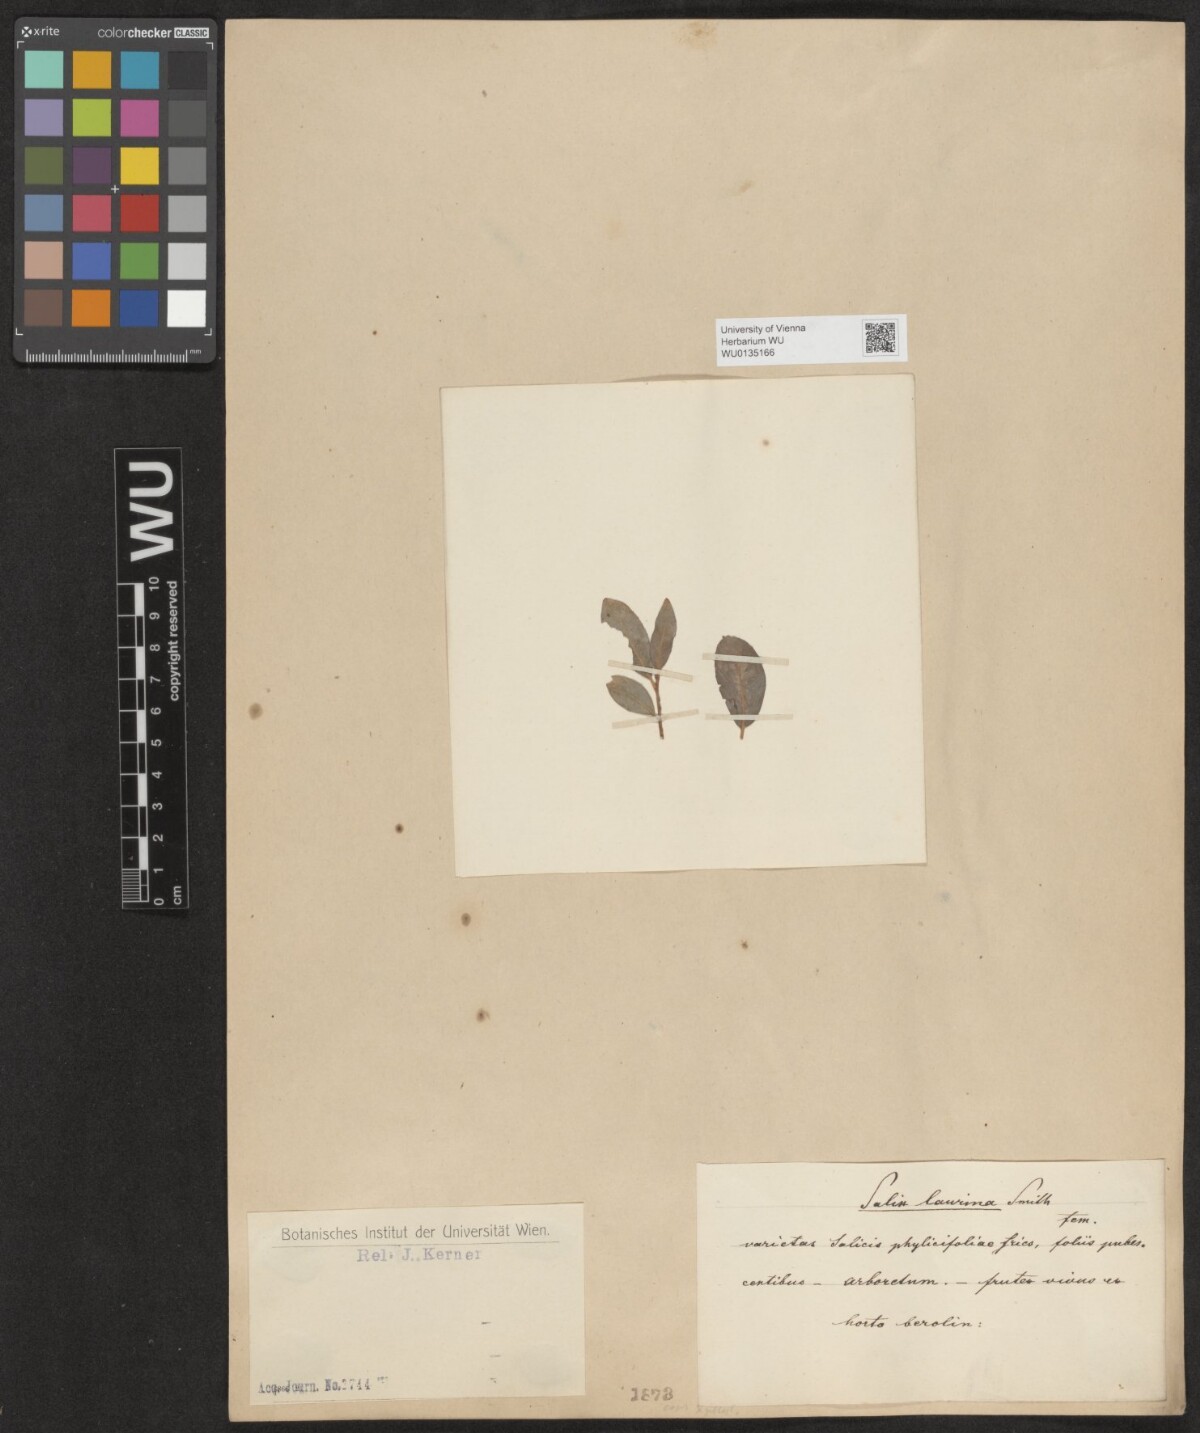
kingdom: Plantae
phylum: Tracheophyta
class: Magnoliopsida
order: Malpighiales
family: Salicaceae
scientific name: Salicaceae
